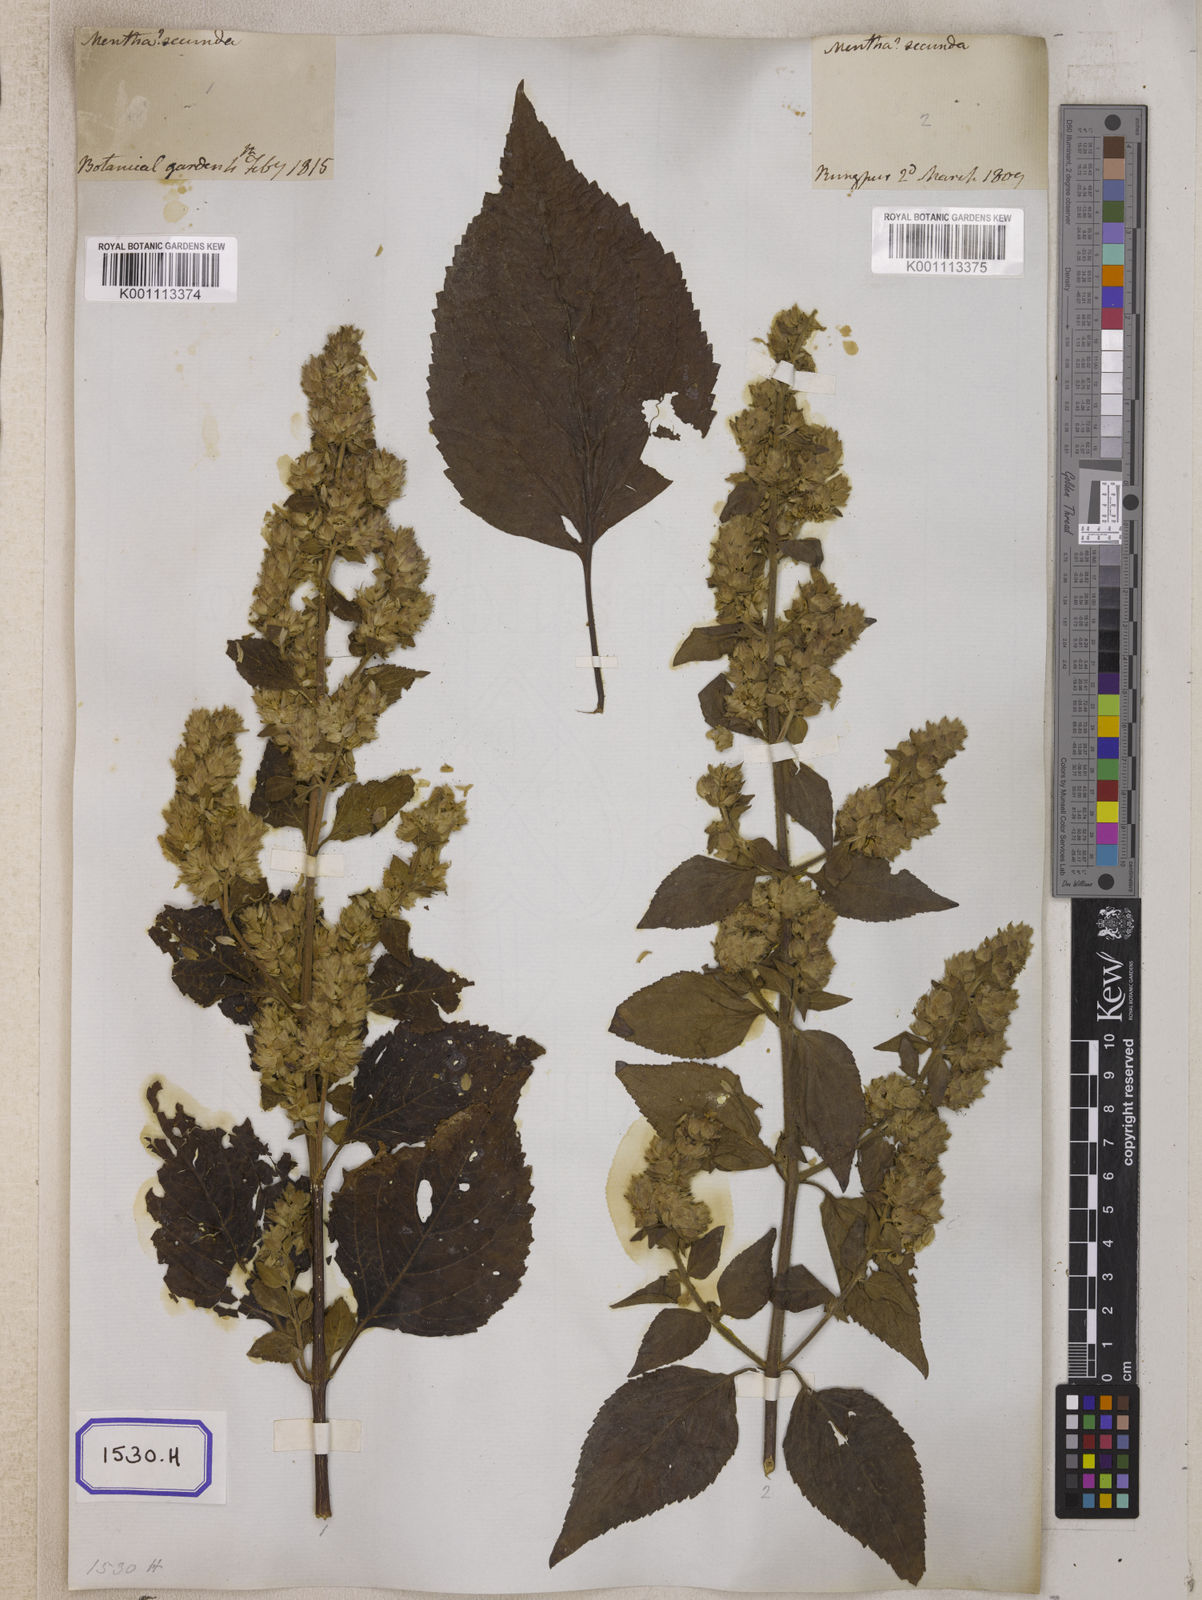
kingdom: Plantae
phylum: Tracheophyta
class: Magnoliopsida
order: Lamiales
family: Lamiaceae
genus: Pogostemon
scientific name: Pogostemon
